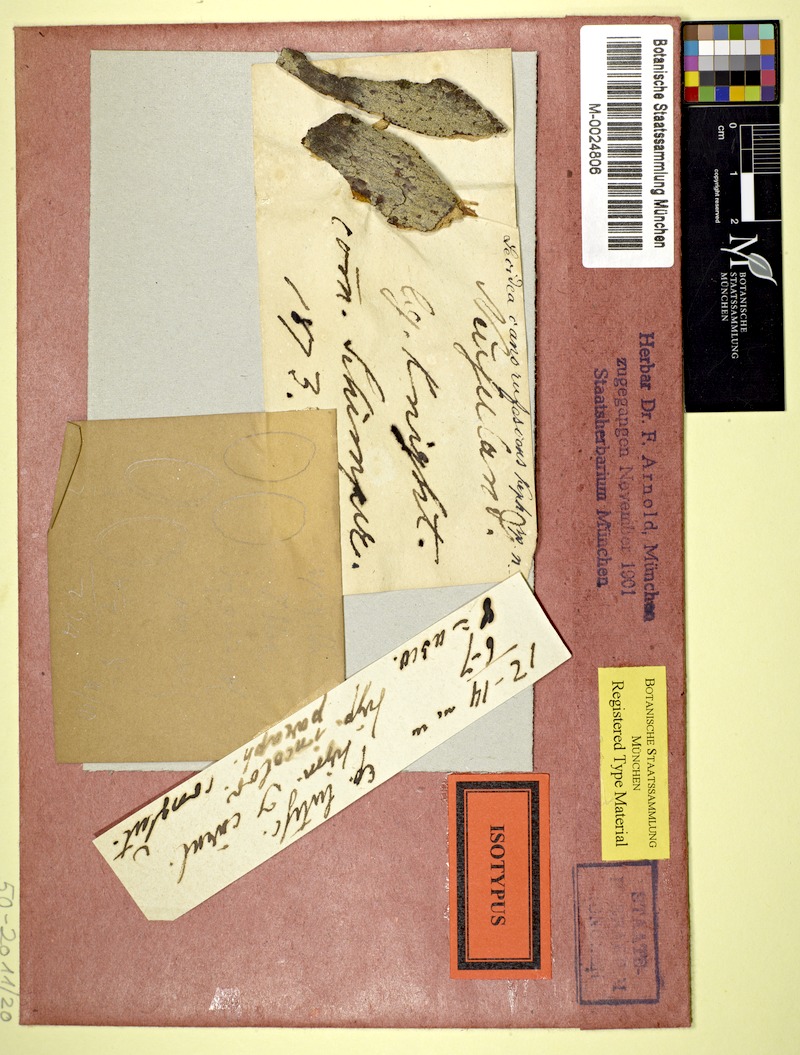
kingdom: Fungi
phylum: Ascomycota
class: Lecanoromycetes
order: Lecanorales
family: Malmideaceae
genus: Australidea
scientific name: Australidea canorufescens
